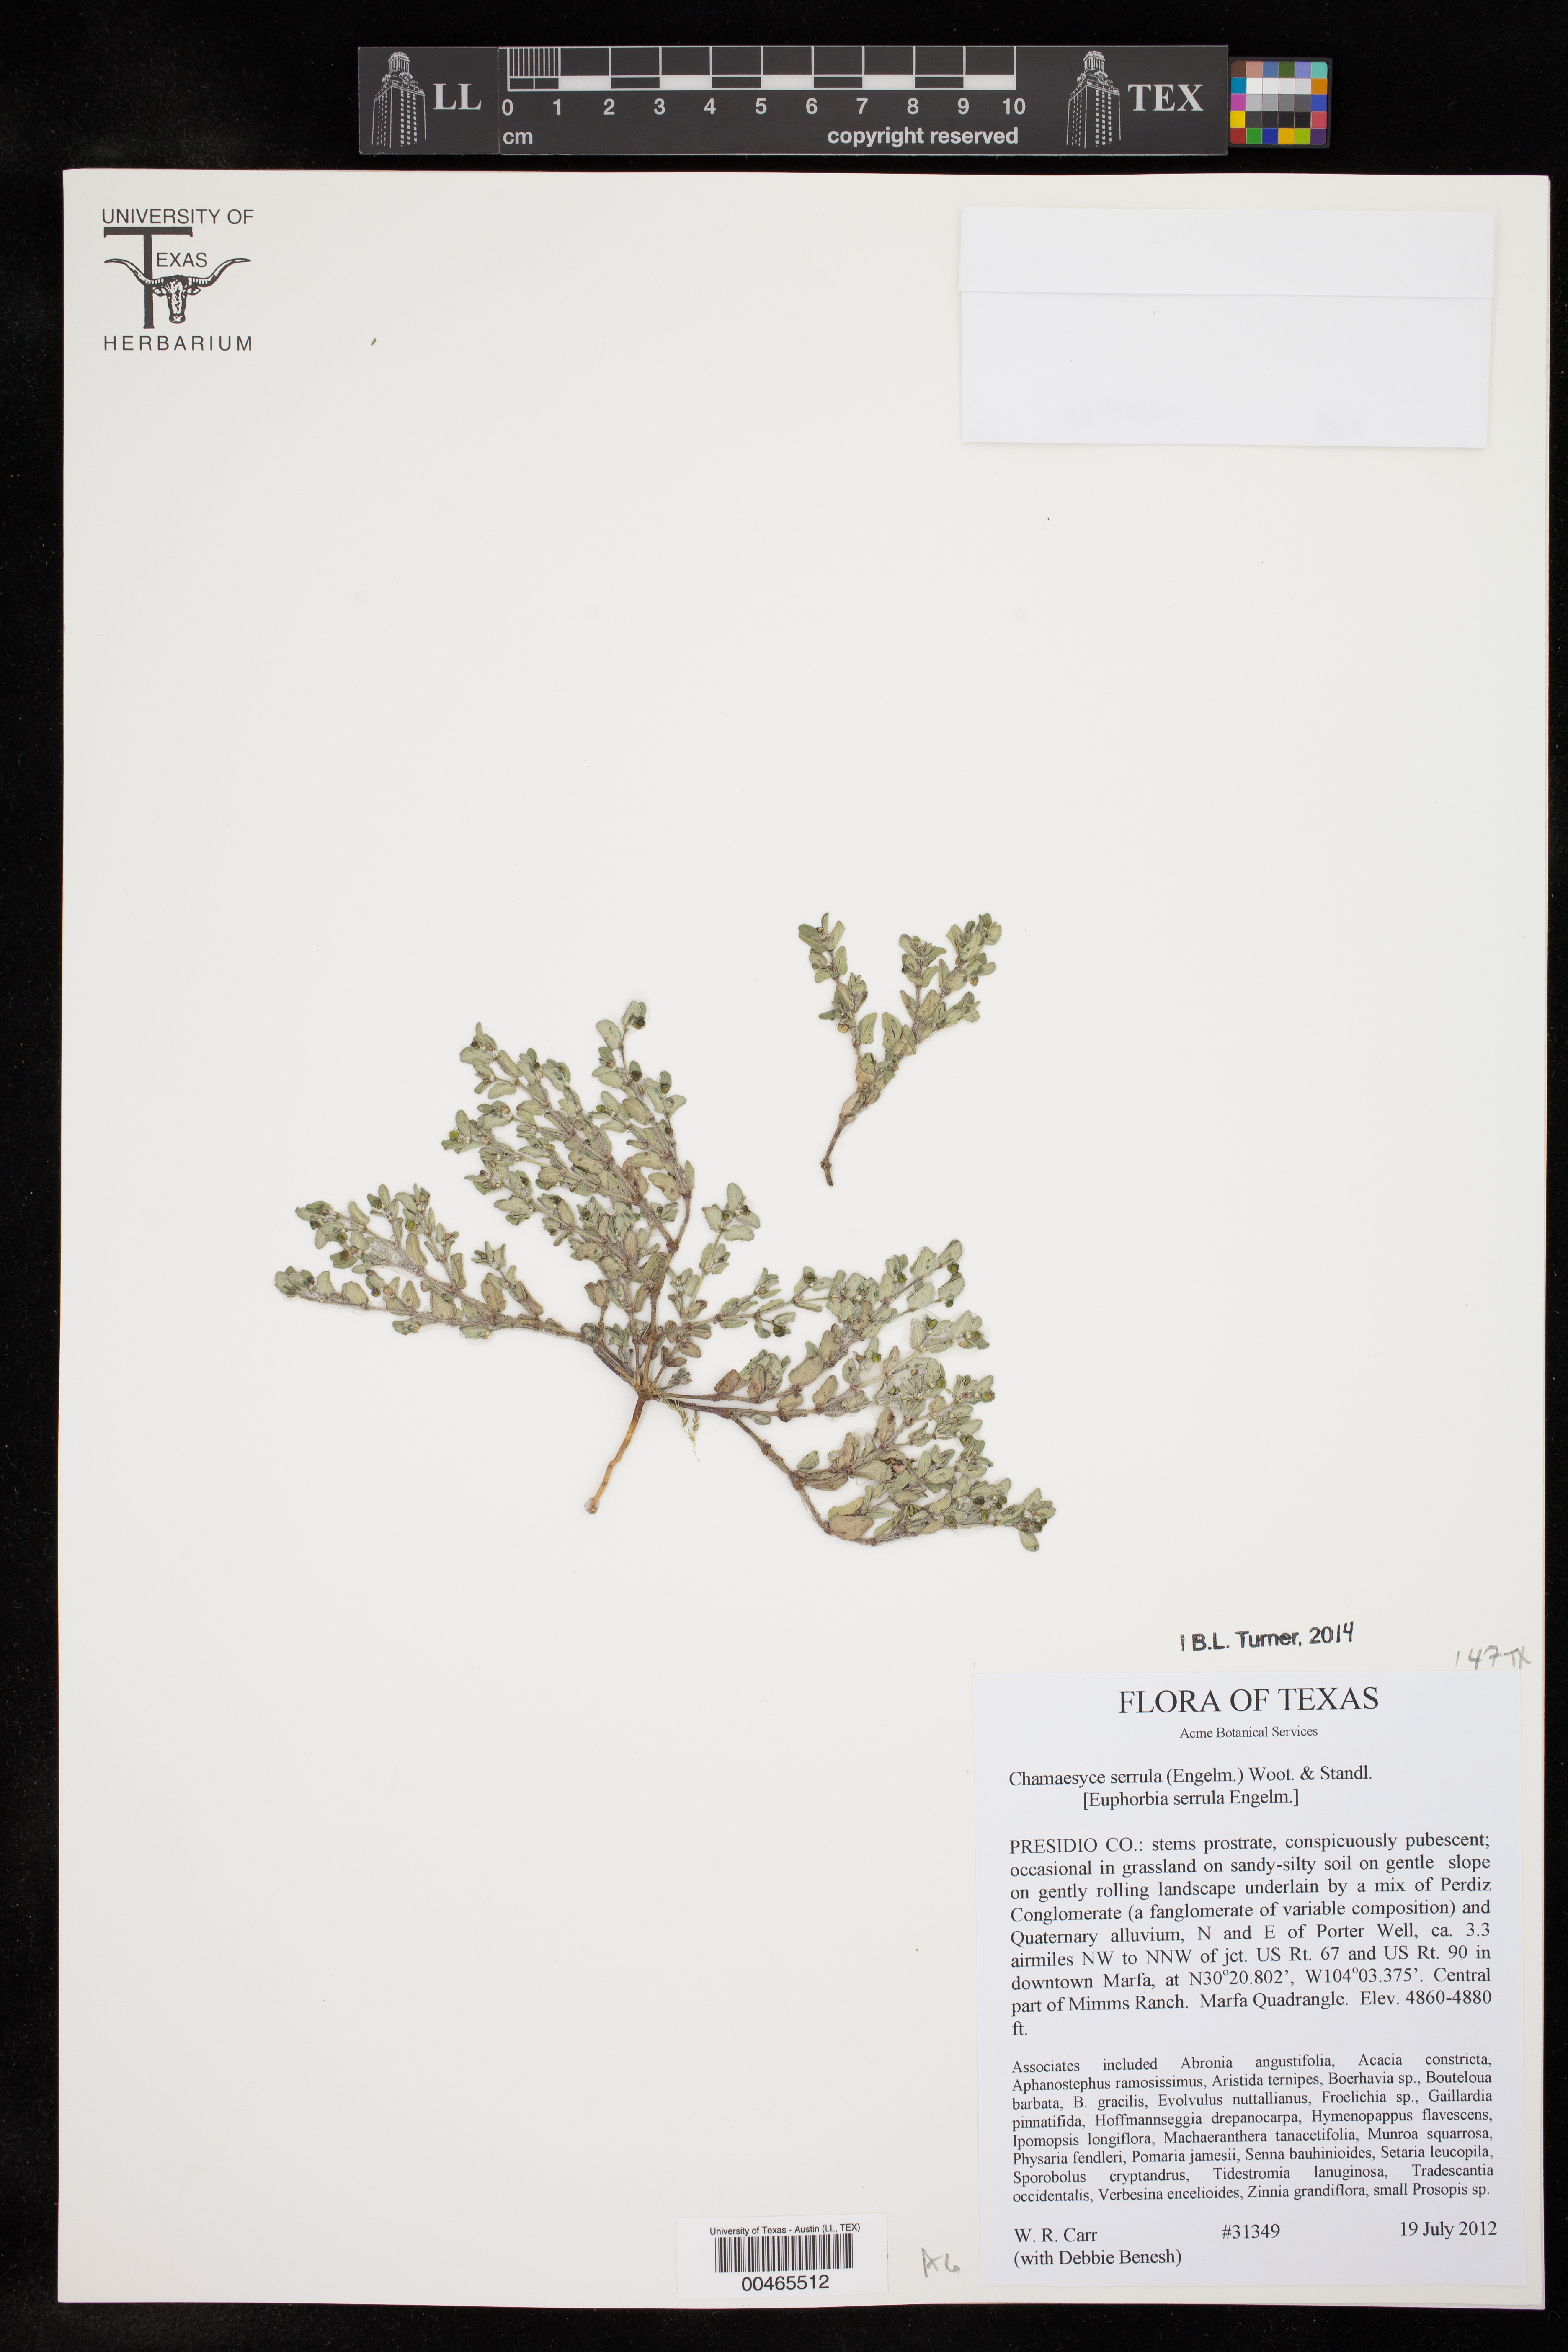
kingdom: Plantae
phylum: Tracheophyta
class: Magnoliopsida
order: Malpighiales
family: Euphorbiaceae
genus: Euphorbia
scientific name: Euphorbia serrula
